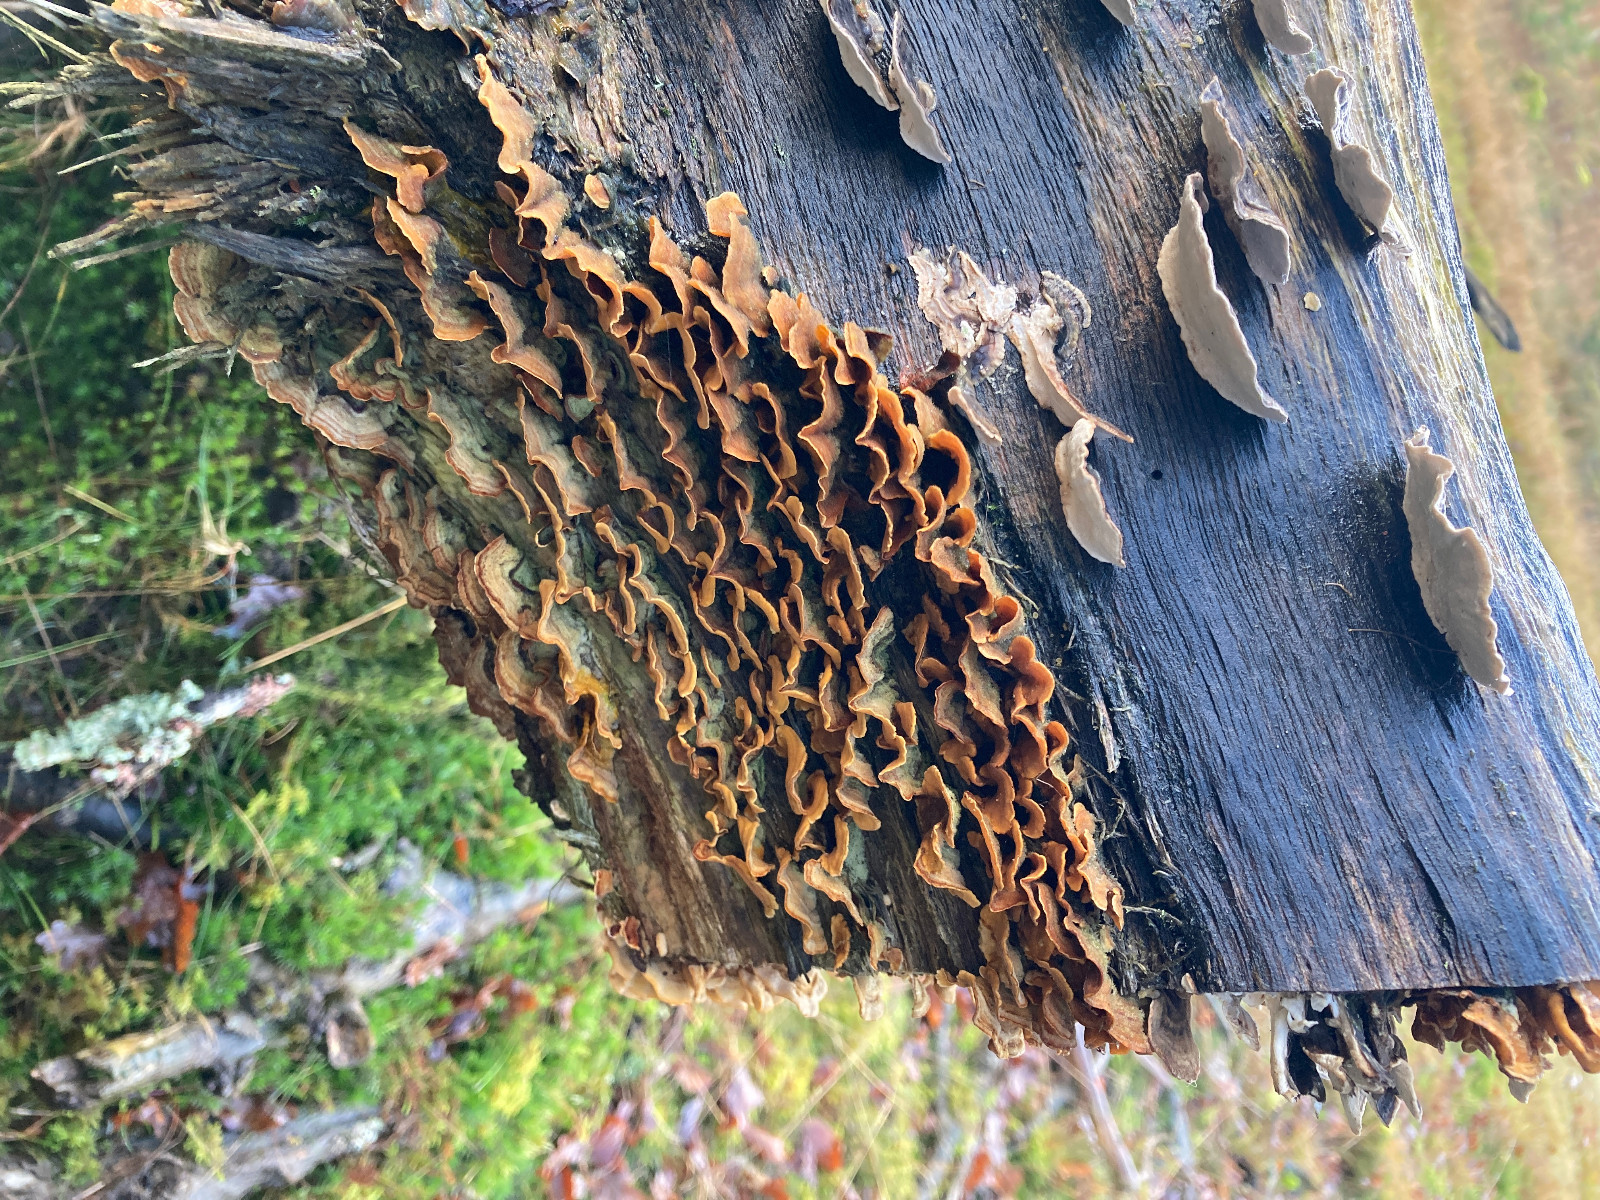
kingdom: Fungi
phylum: Basidiomycota
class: Agaricomycetes
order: Russulales
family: Stereaceae
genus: Stereum
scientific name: Stereum subtomentosum
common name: smuk lædersvamp
